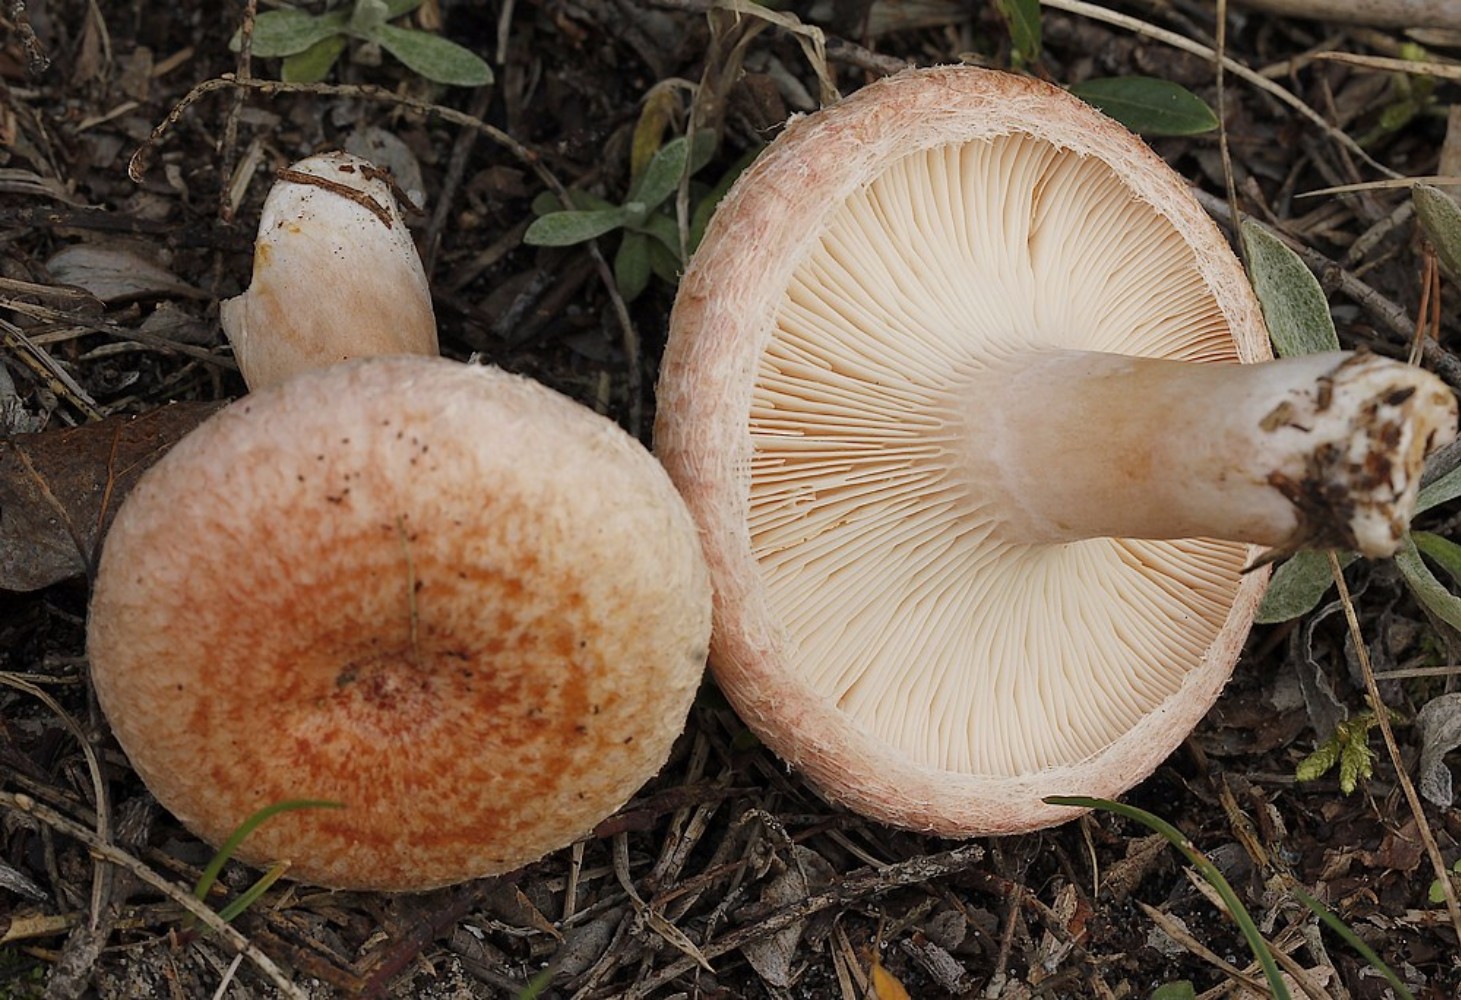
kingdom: Fungi
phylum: Basidiomycota
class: Agaricomycetes
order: Russulales
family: Russulaceae
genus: Lactarius
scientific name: Lactarius torminosus
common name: skægget mælkehat
